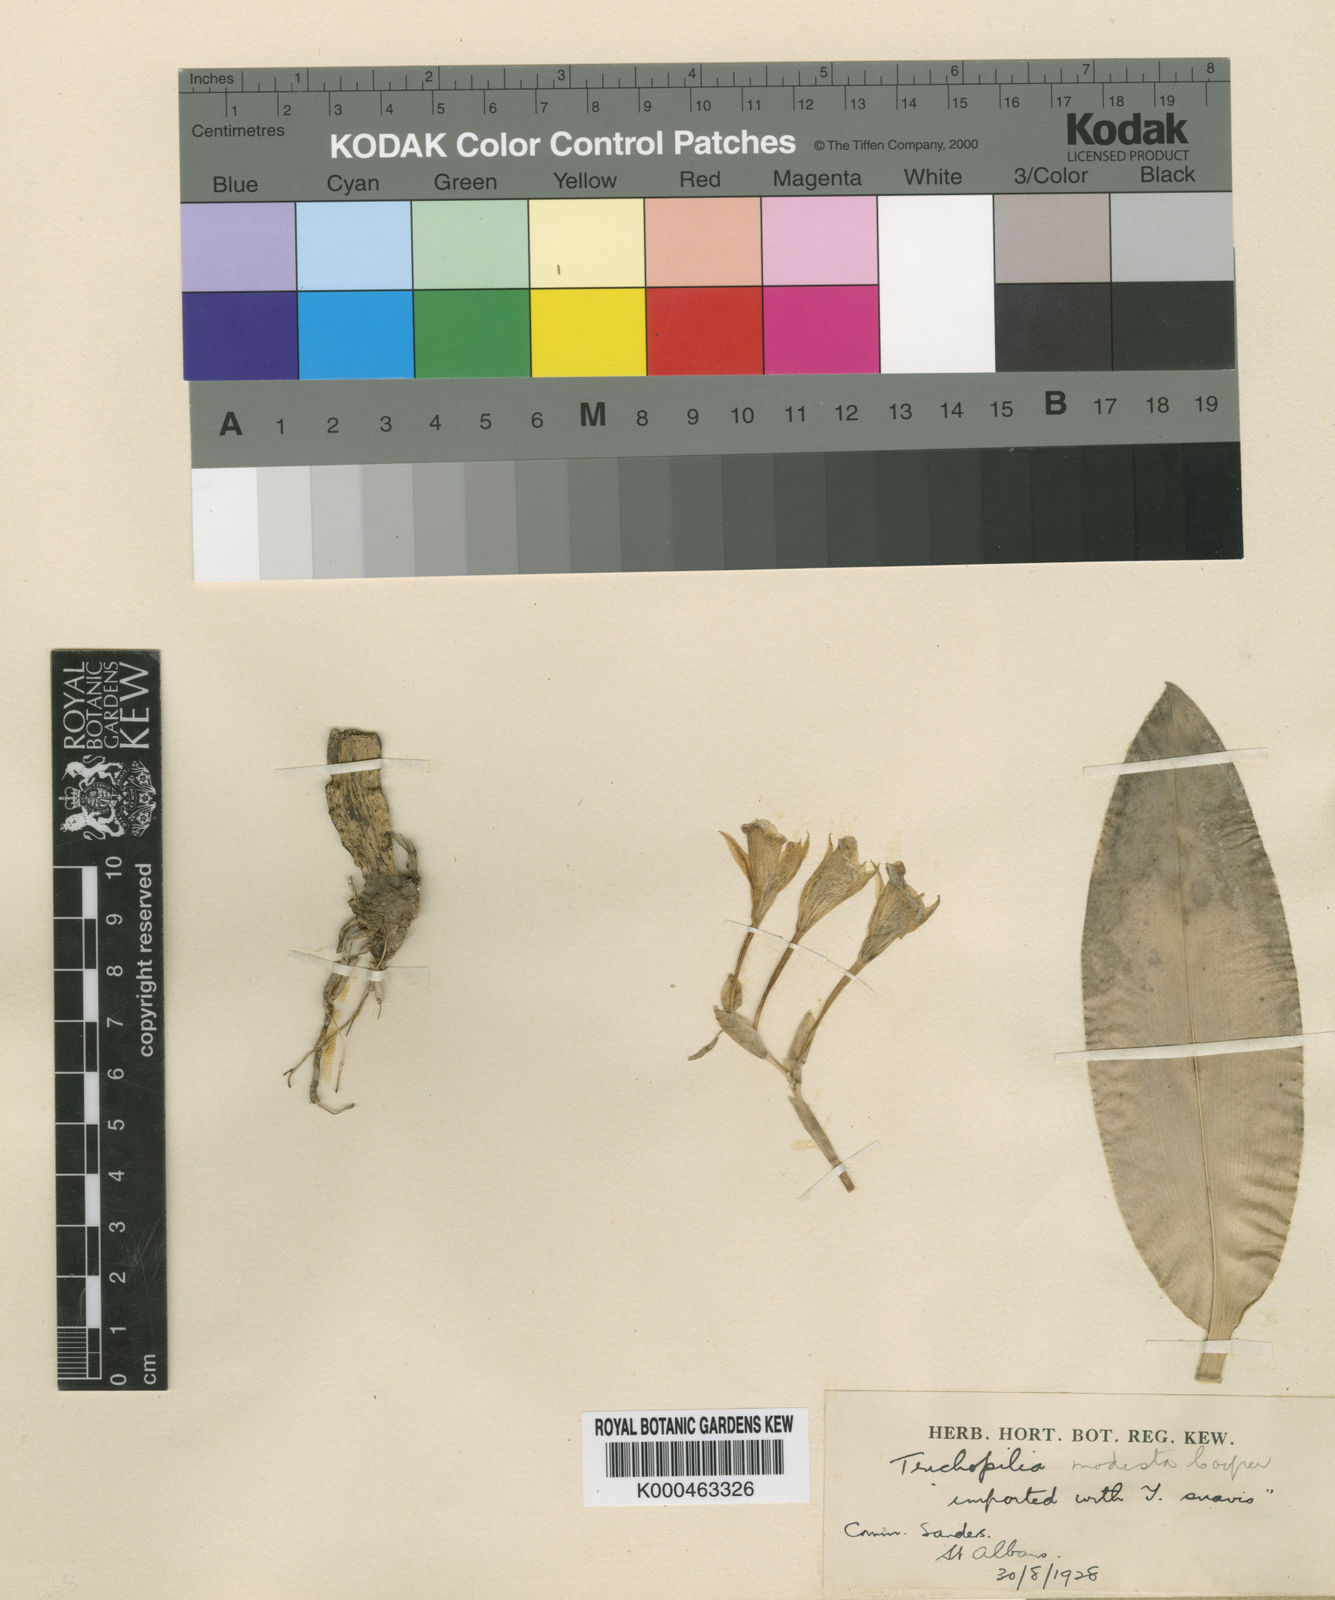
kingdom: Plantae
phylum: Tracheophyta
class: Liliopsida
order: Asparagales
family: Orchidaceae
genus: Trichopilia
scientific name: Trichopilia modesta
